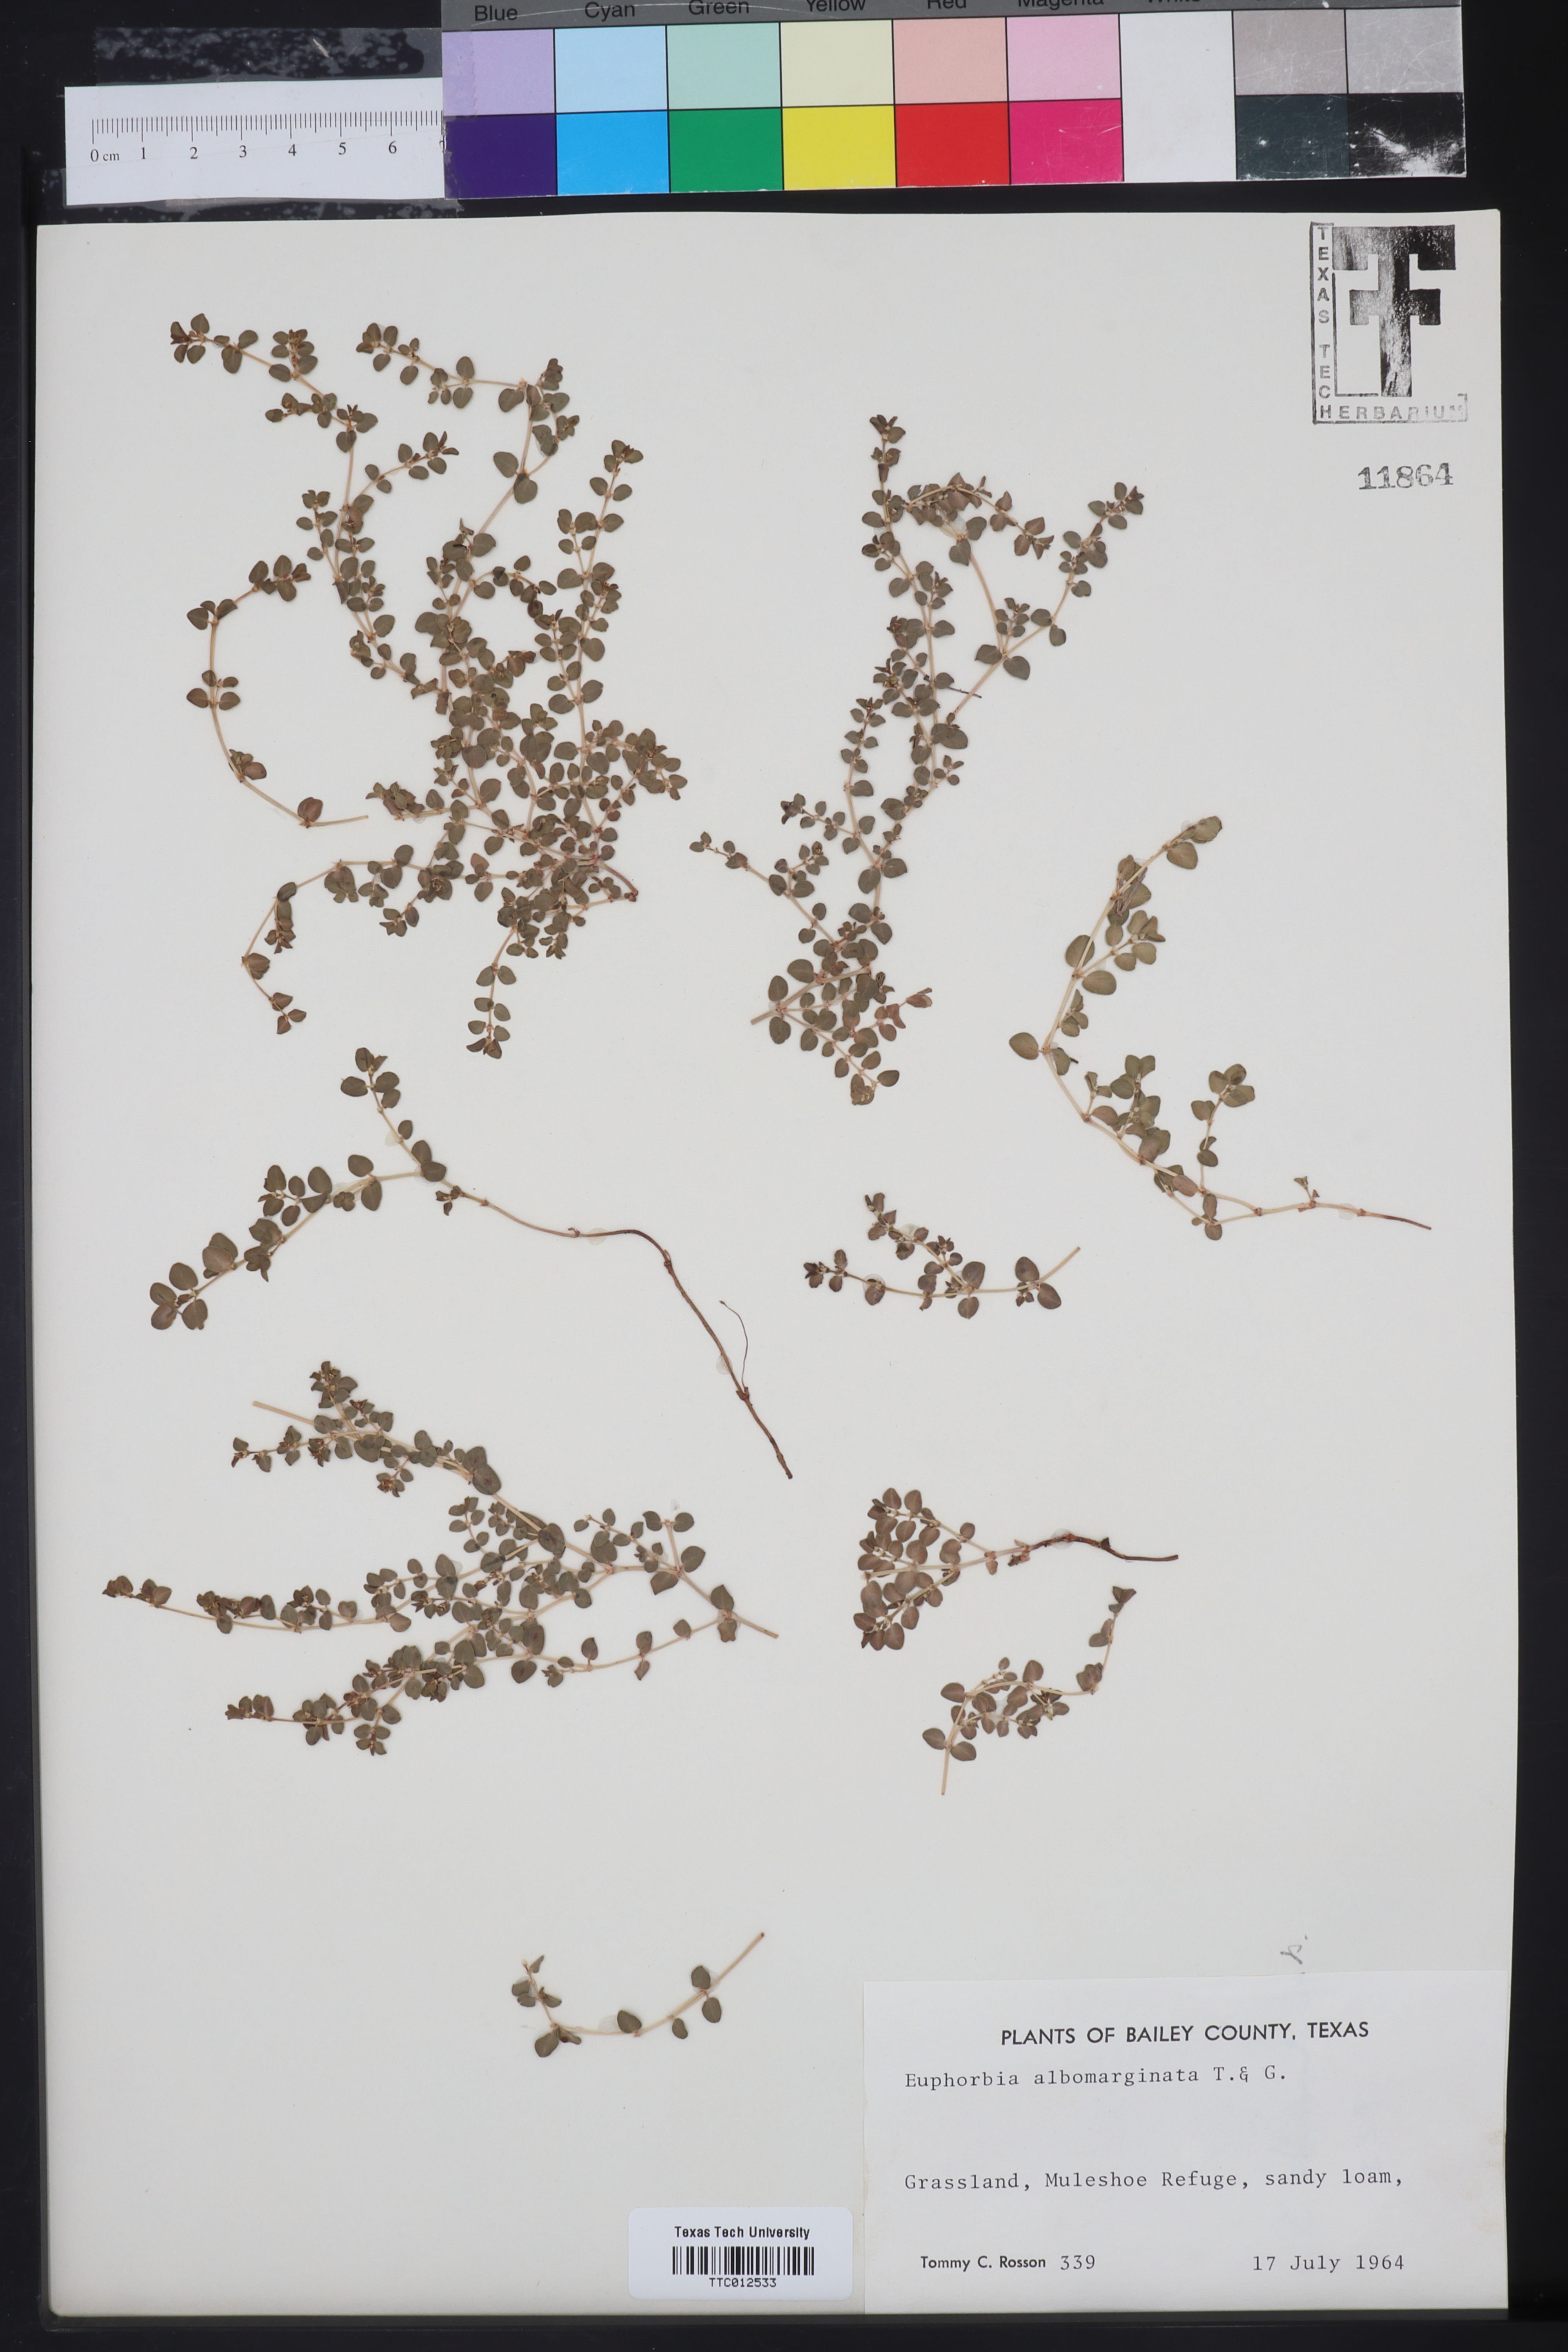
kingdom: Plantae
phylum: Tracheophyta
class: Magnoliopsida
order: Malpighiales
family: Euphorbiaceae
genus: Euphorbia
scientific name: Euphorbia albomarginata
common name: Whitemargin sandmat
